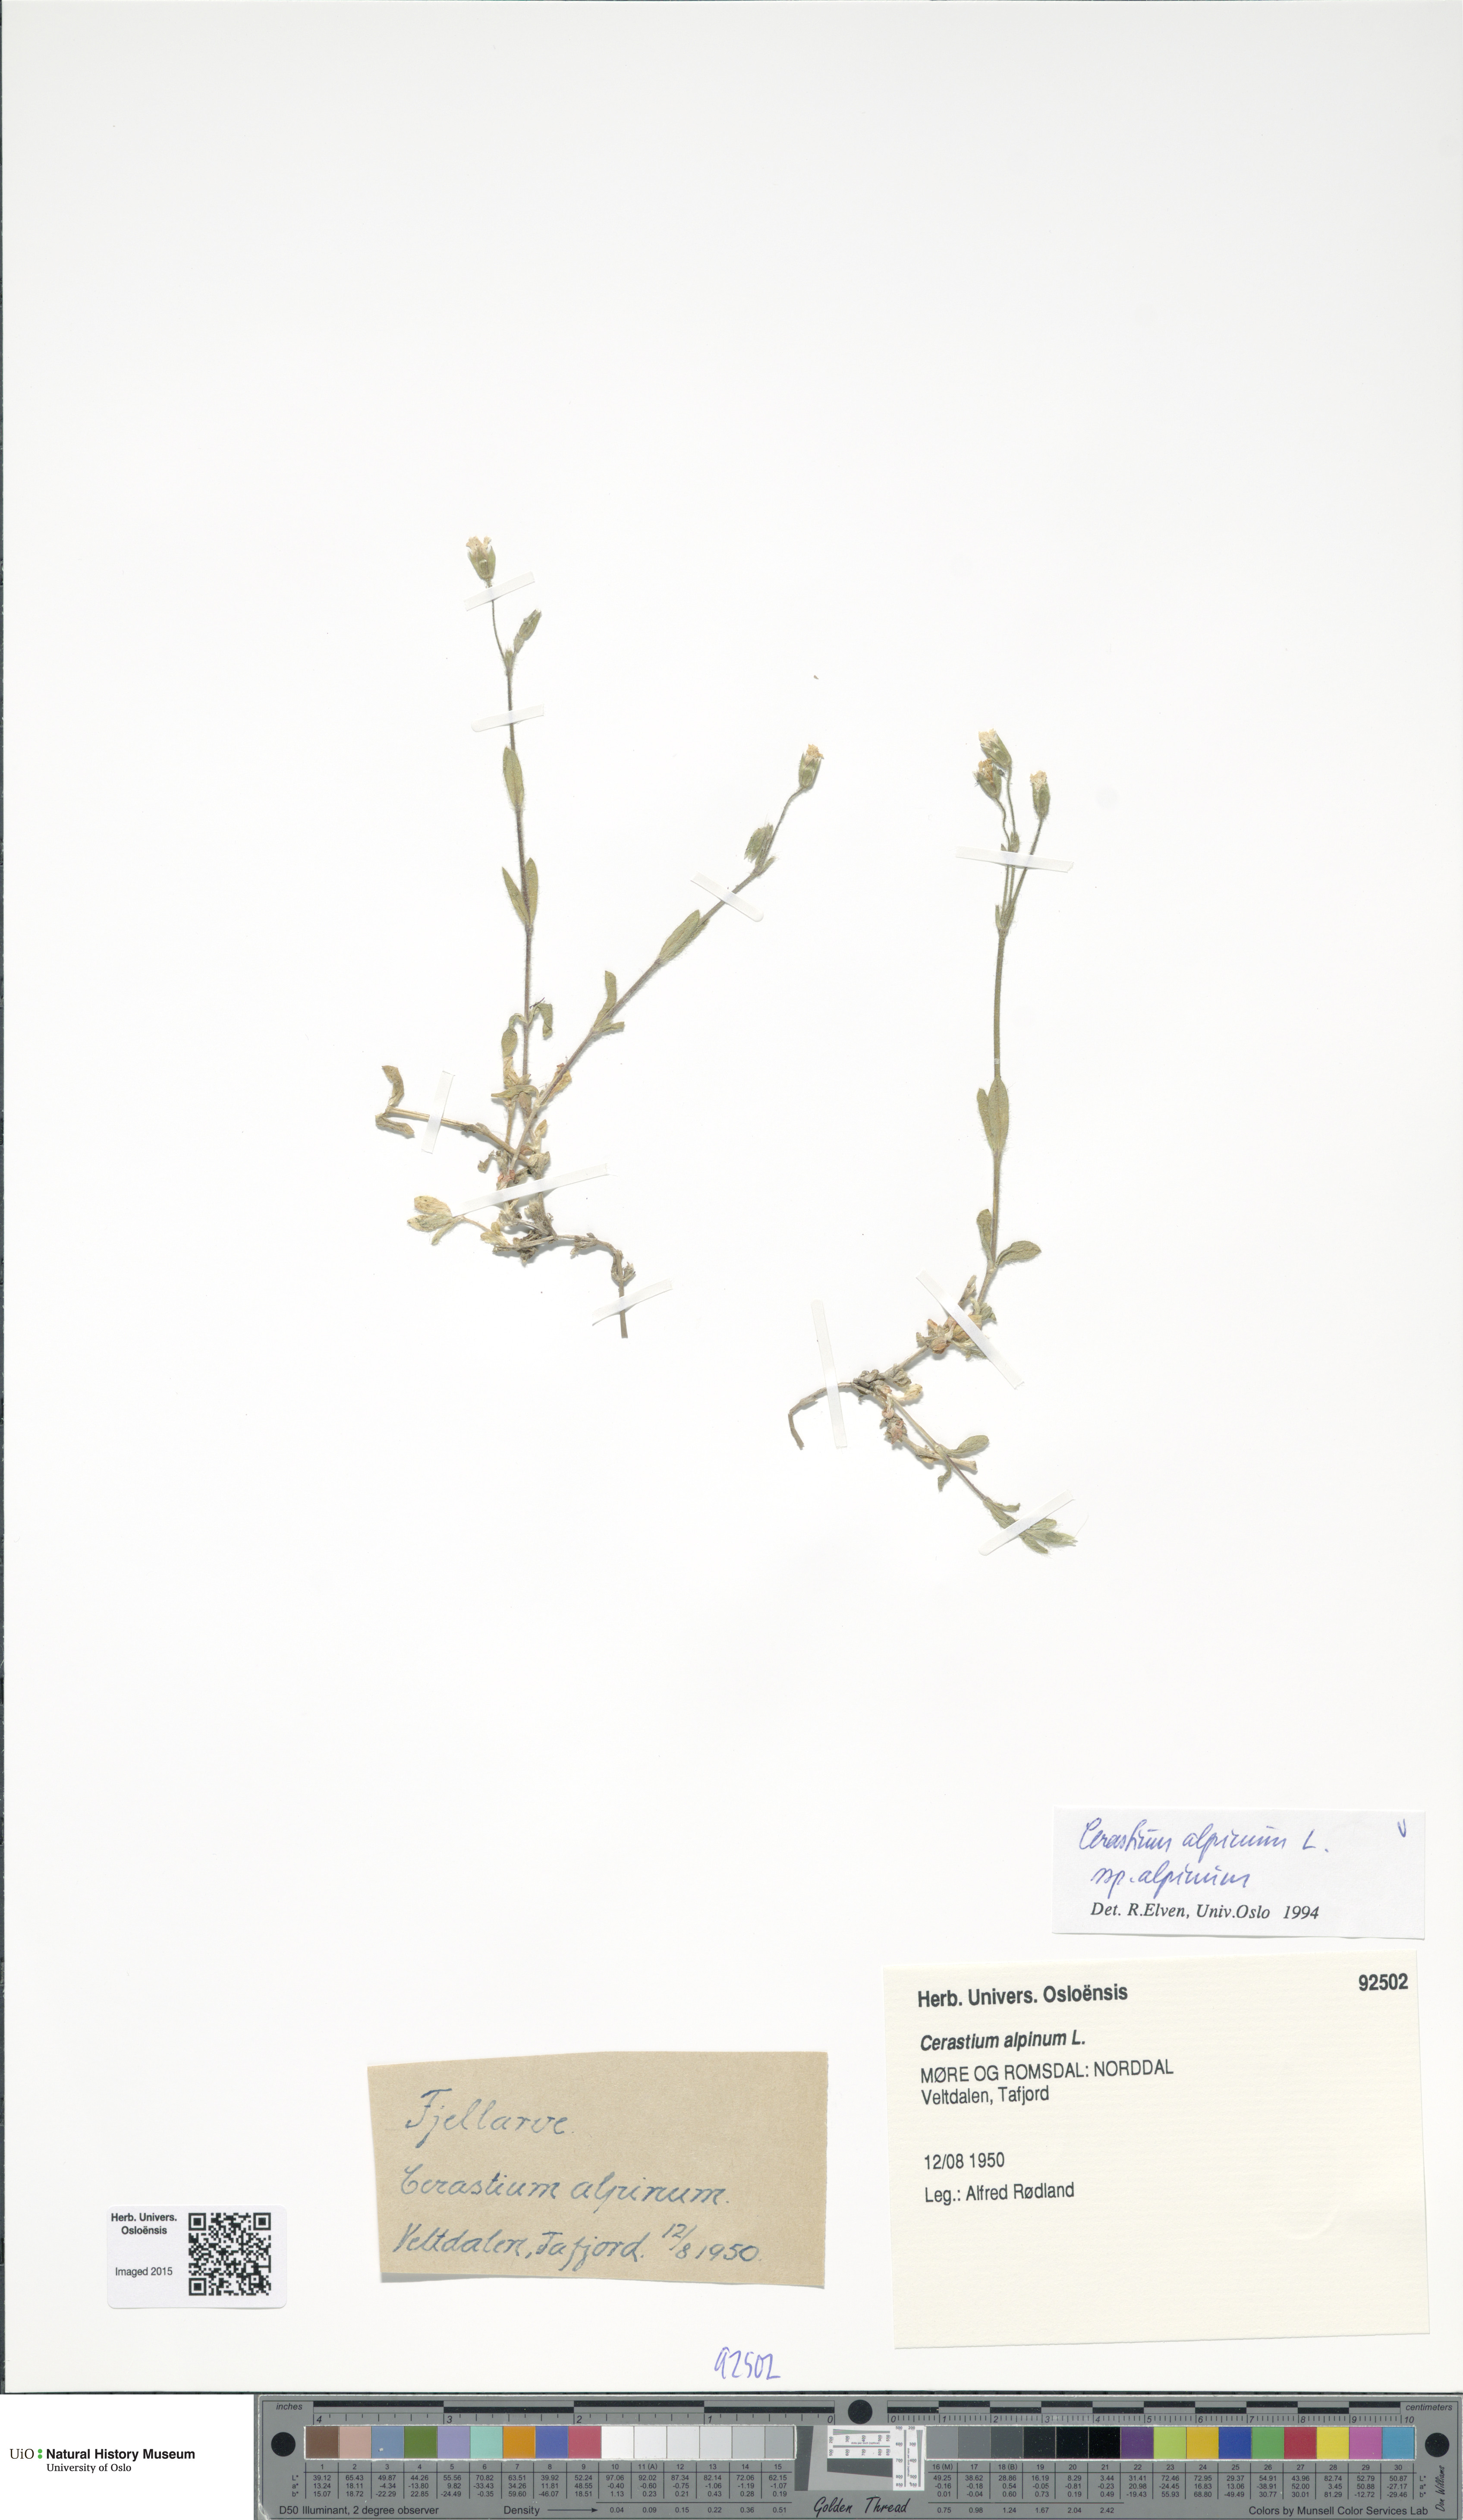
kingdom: Plantae
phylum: Tracheophyta
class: Magnoliopsida
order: Caryophyllales
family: Caryophyllaceae
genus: Cerastium
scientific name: Cerastium alpinum
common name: Alpine mouse-ear
